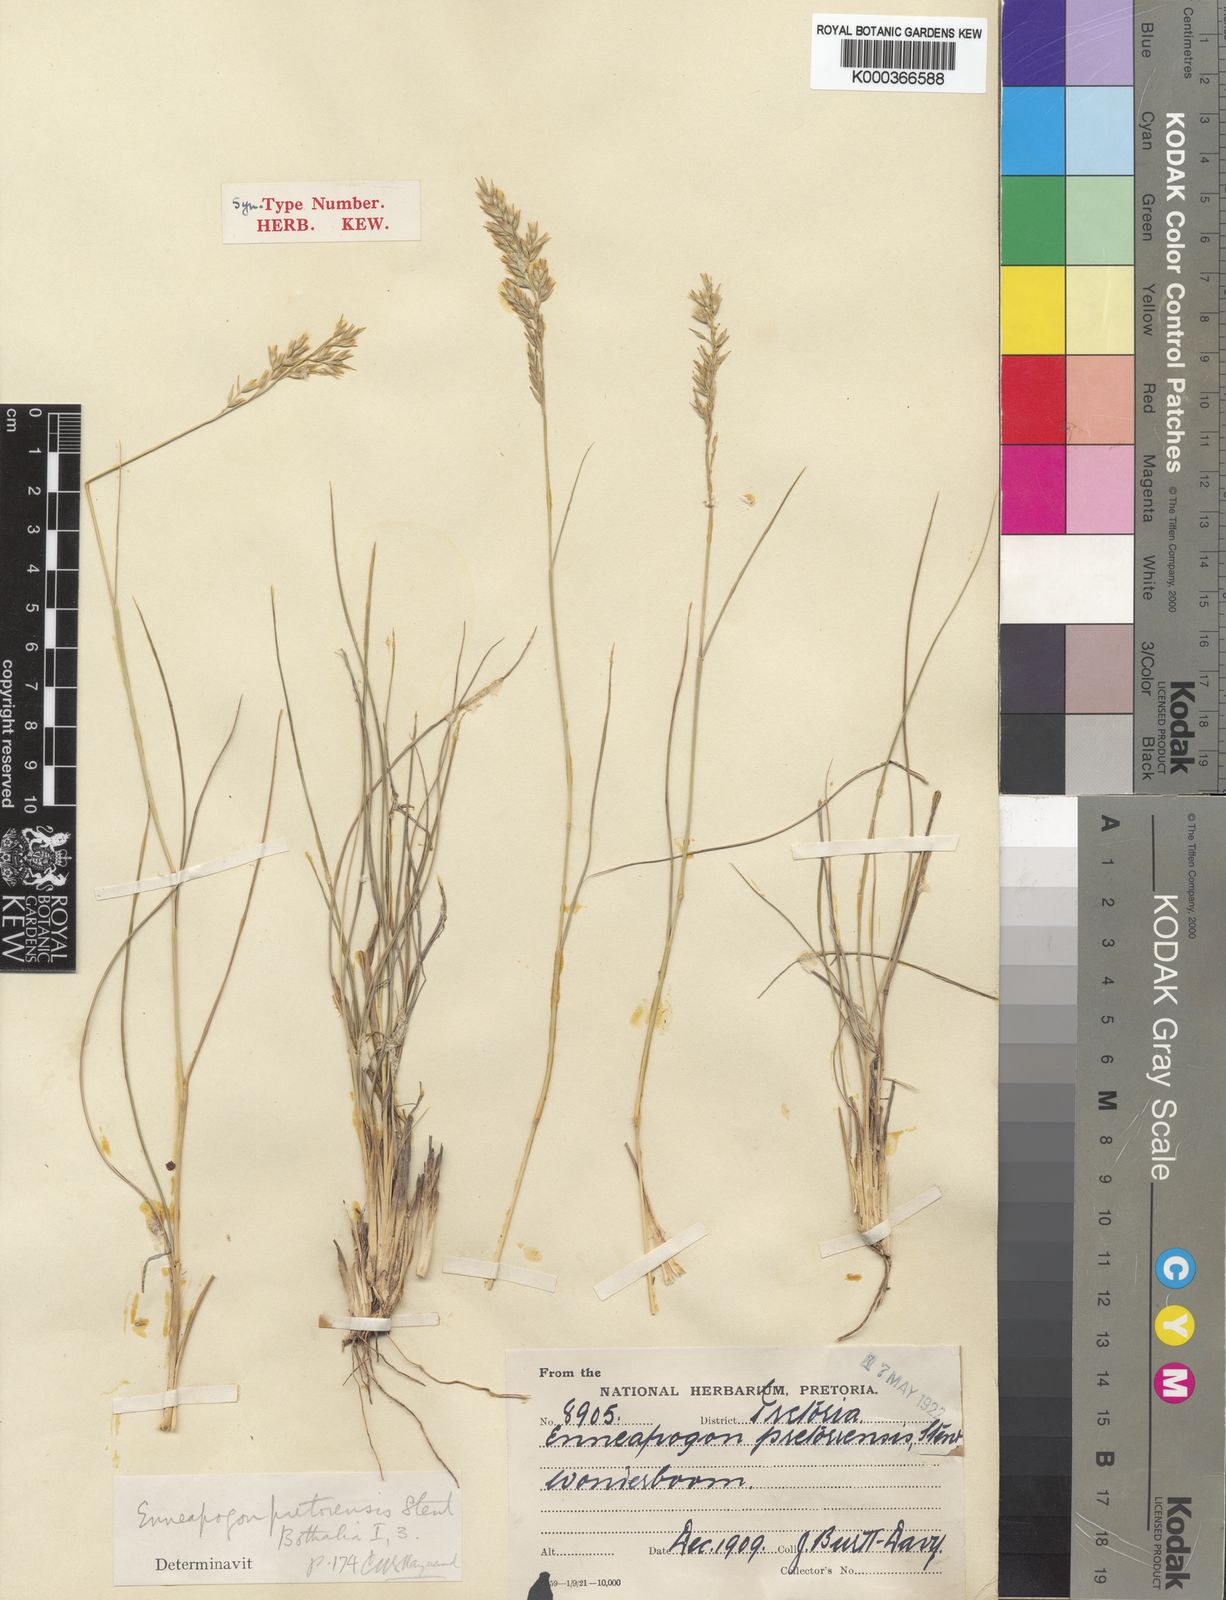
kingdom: Plantae
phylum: Tracheophyta
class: Liliopsida
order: Poales
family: Poaceae
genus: Enneapogon
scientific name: Enneapogon pretoriensis
